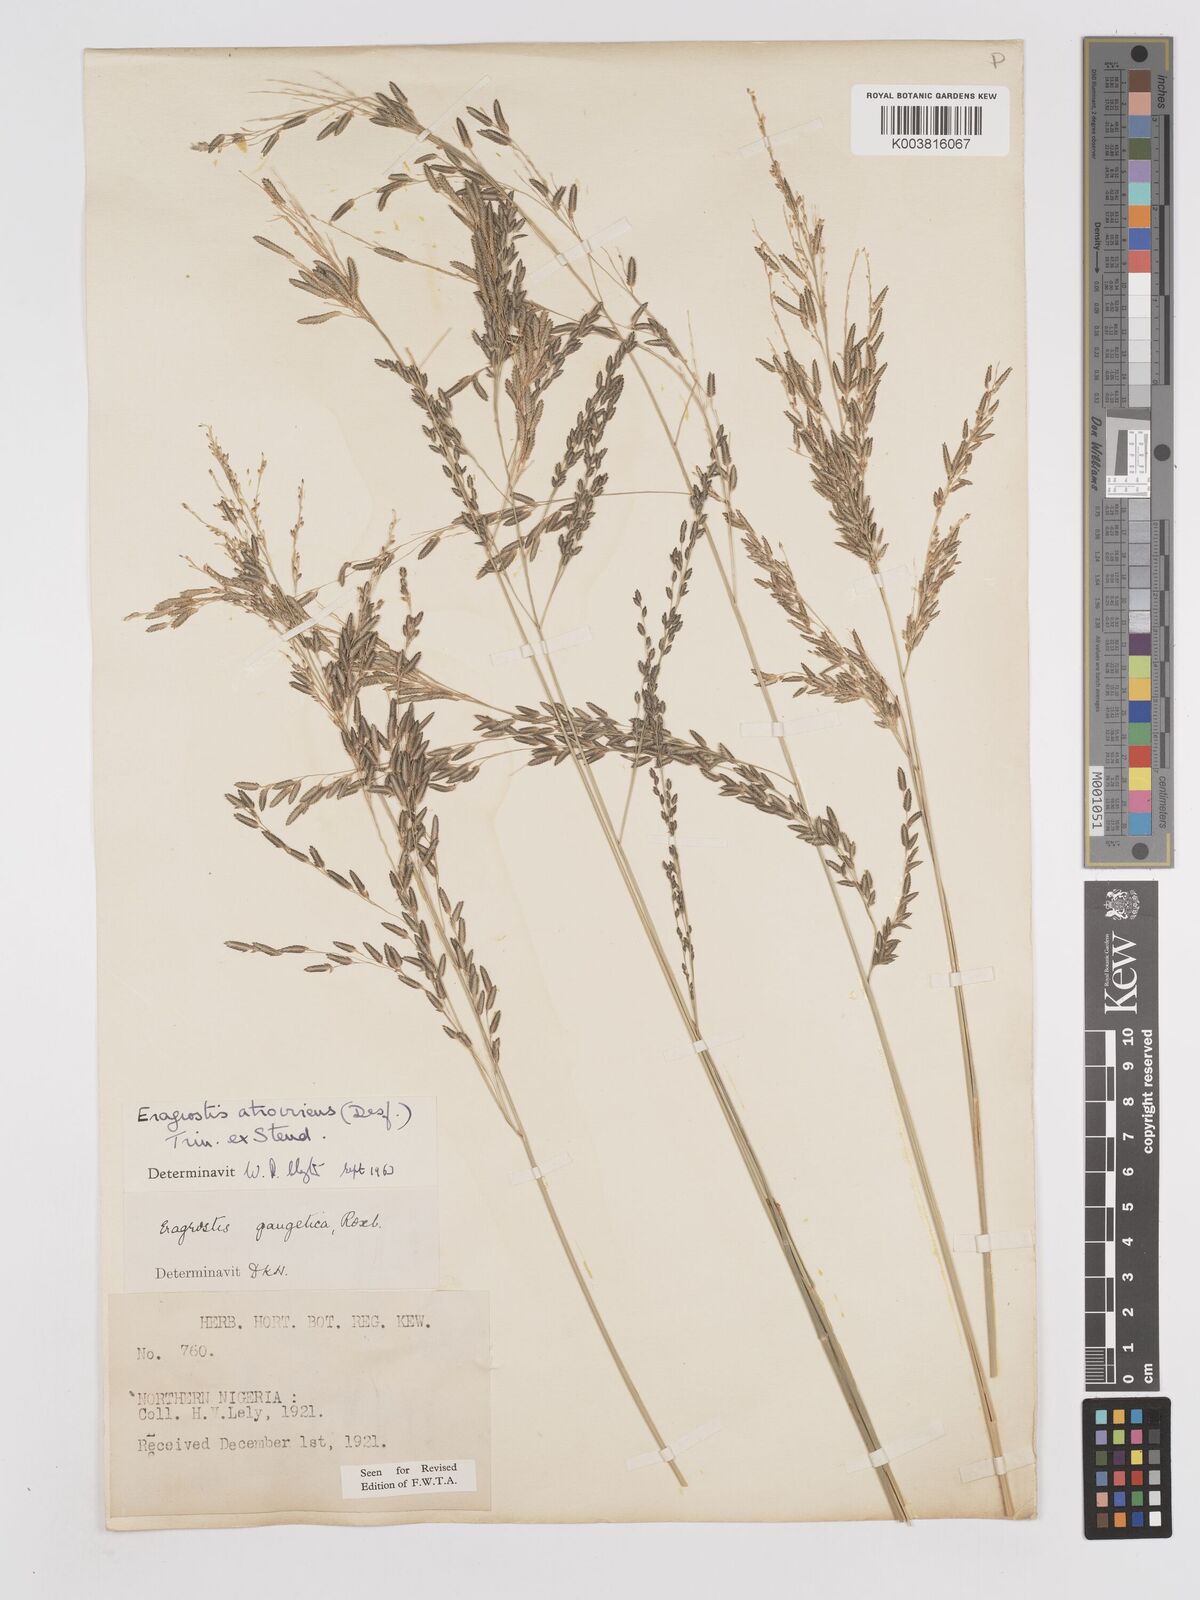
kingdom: Plantae
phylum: Tracheophyta
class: Liliopsida
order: Poales
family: Poaceae
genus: Eragrostis
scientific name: Eragrostis atrovirens
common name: Thalia lovegrass
